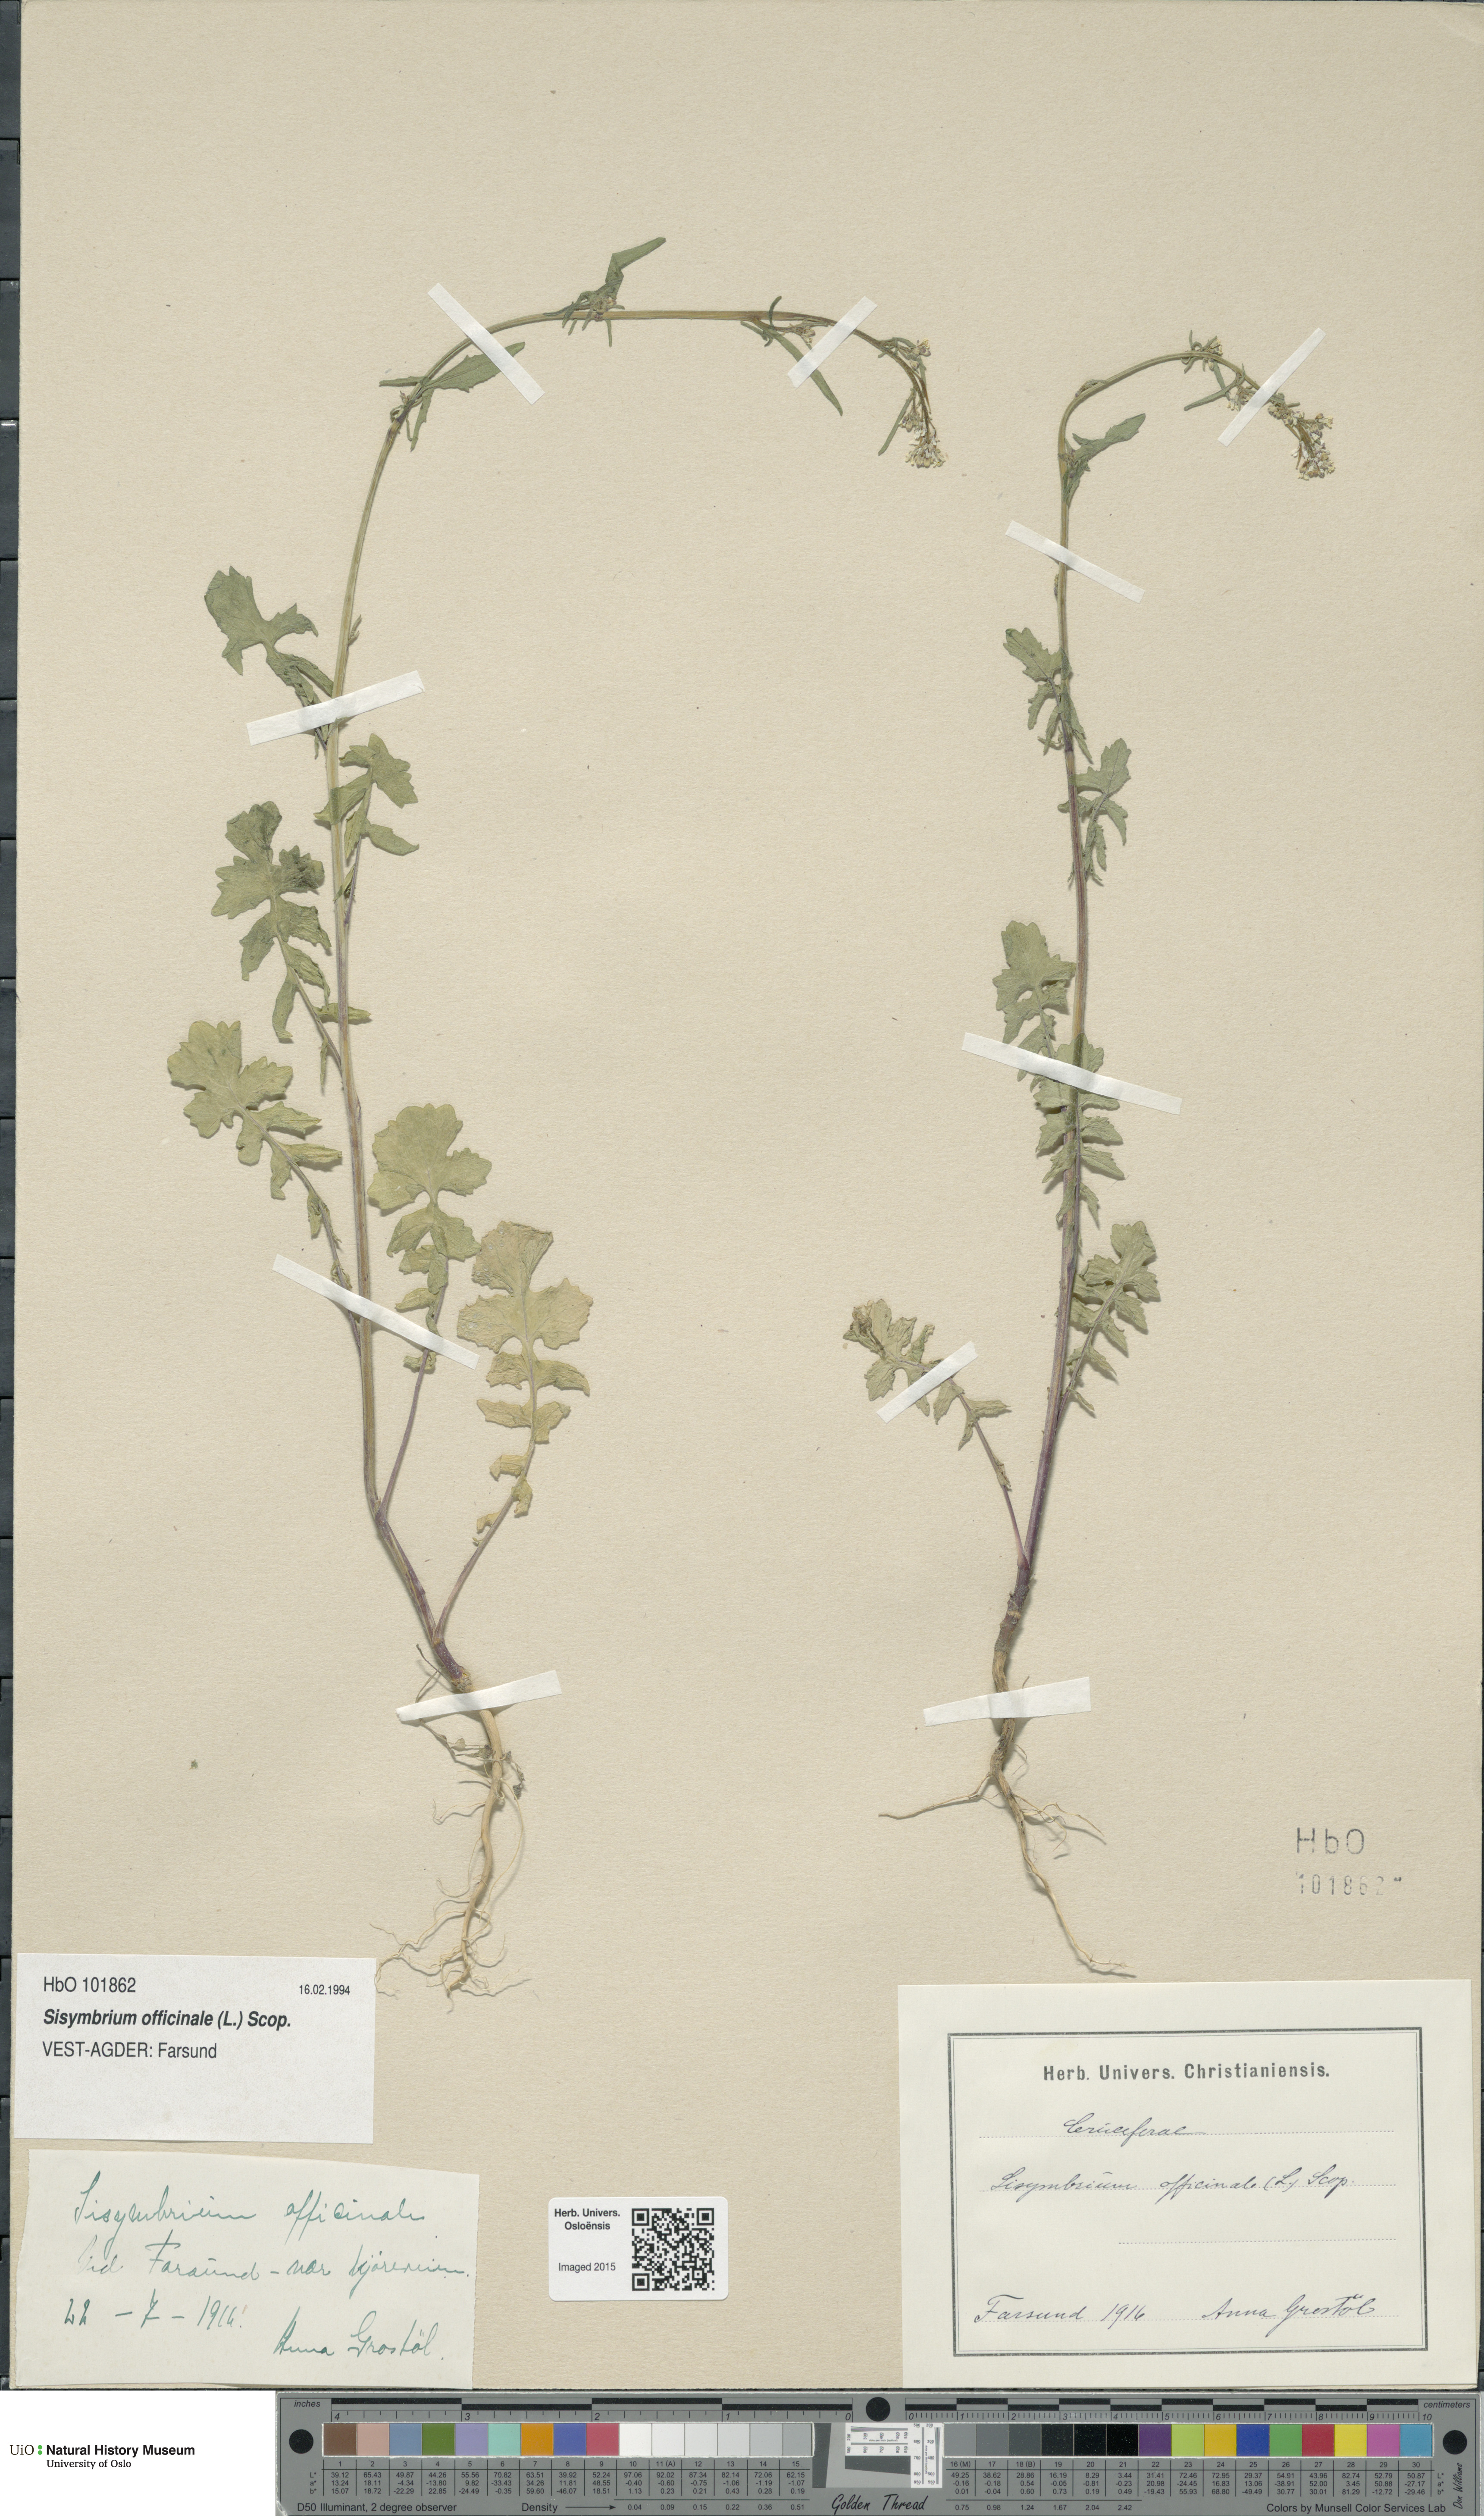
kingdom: Plantae
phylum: Tracheophyta
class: Magnoliopsida
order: Brassicales
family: Brassicaceae
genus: Sisymbrium
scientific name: Sisymbrium officinale
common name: Hedge mustard
